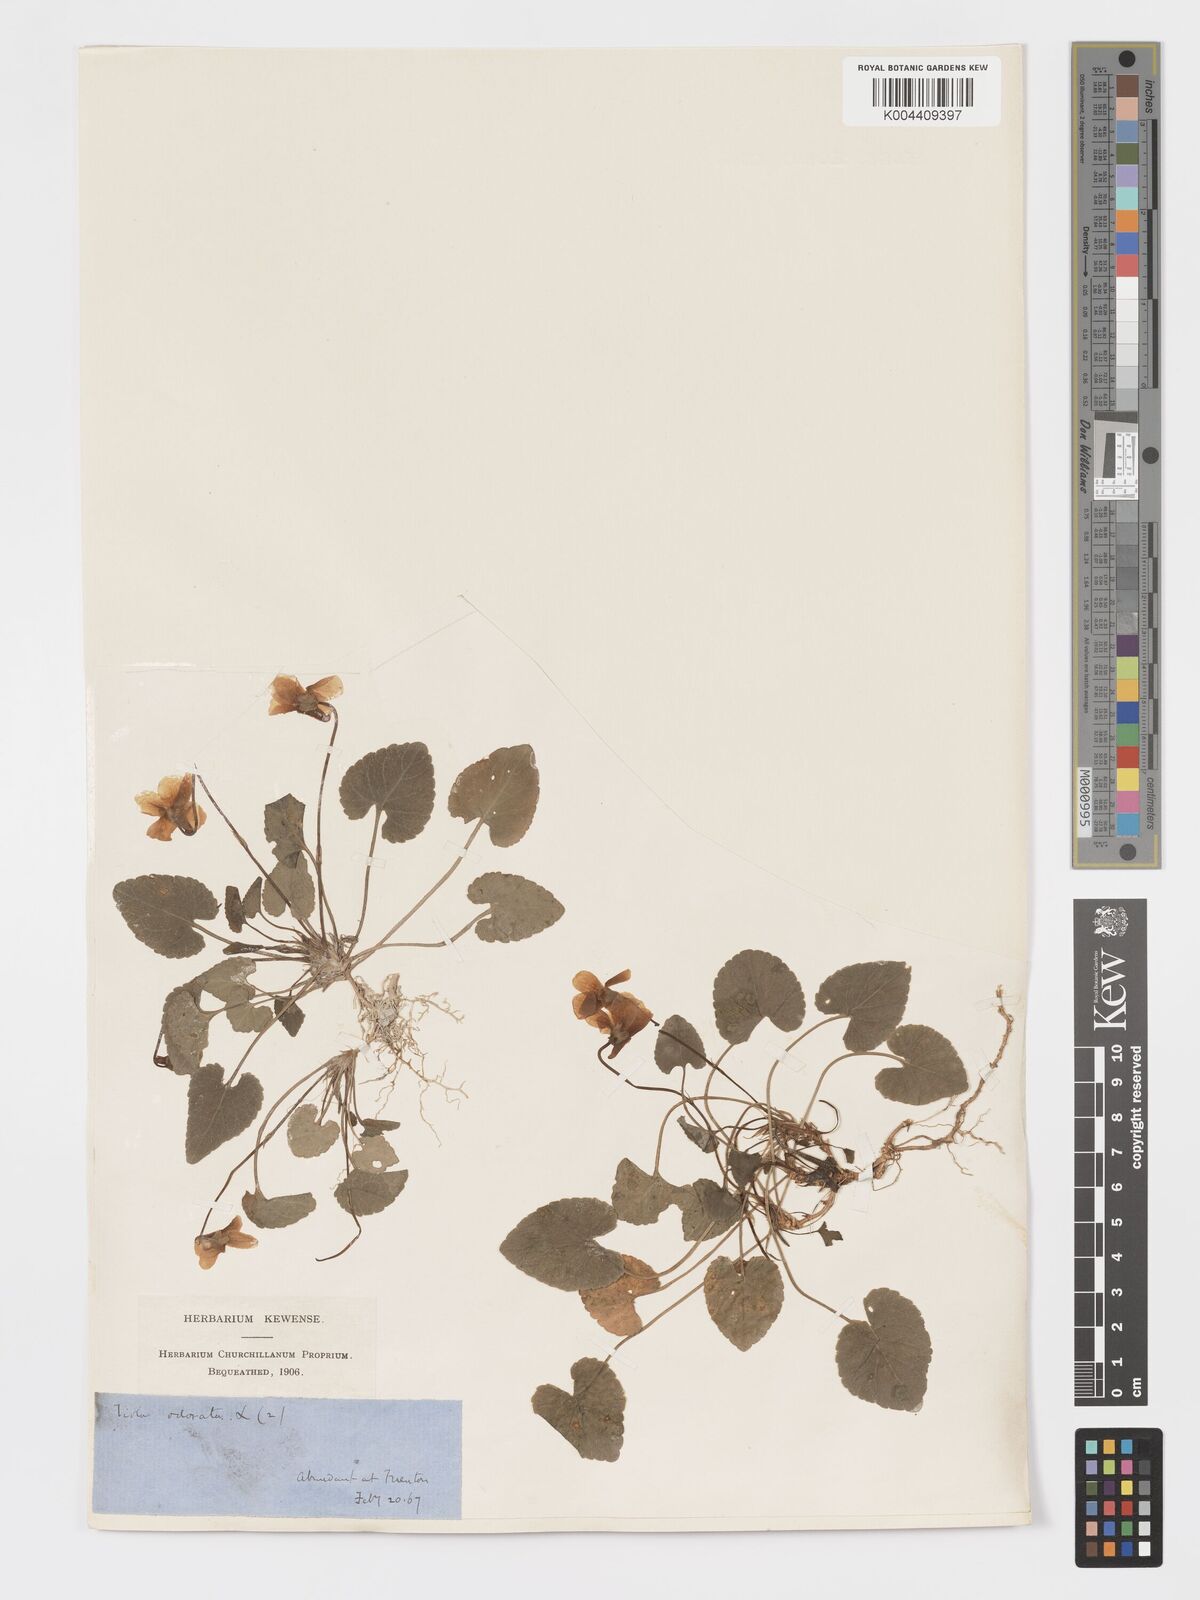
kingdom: Plantae
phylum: Tracheophyta
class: Magnoliopsida
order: Malpighiales
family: Violaceae
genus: Viola
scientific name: Viola alba
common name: White violet
